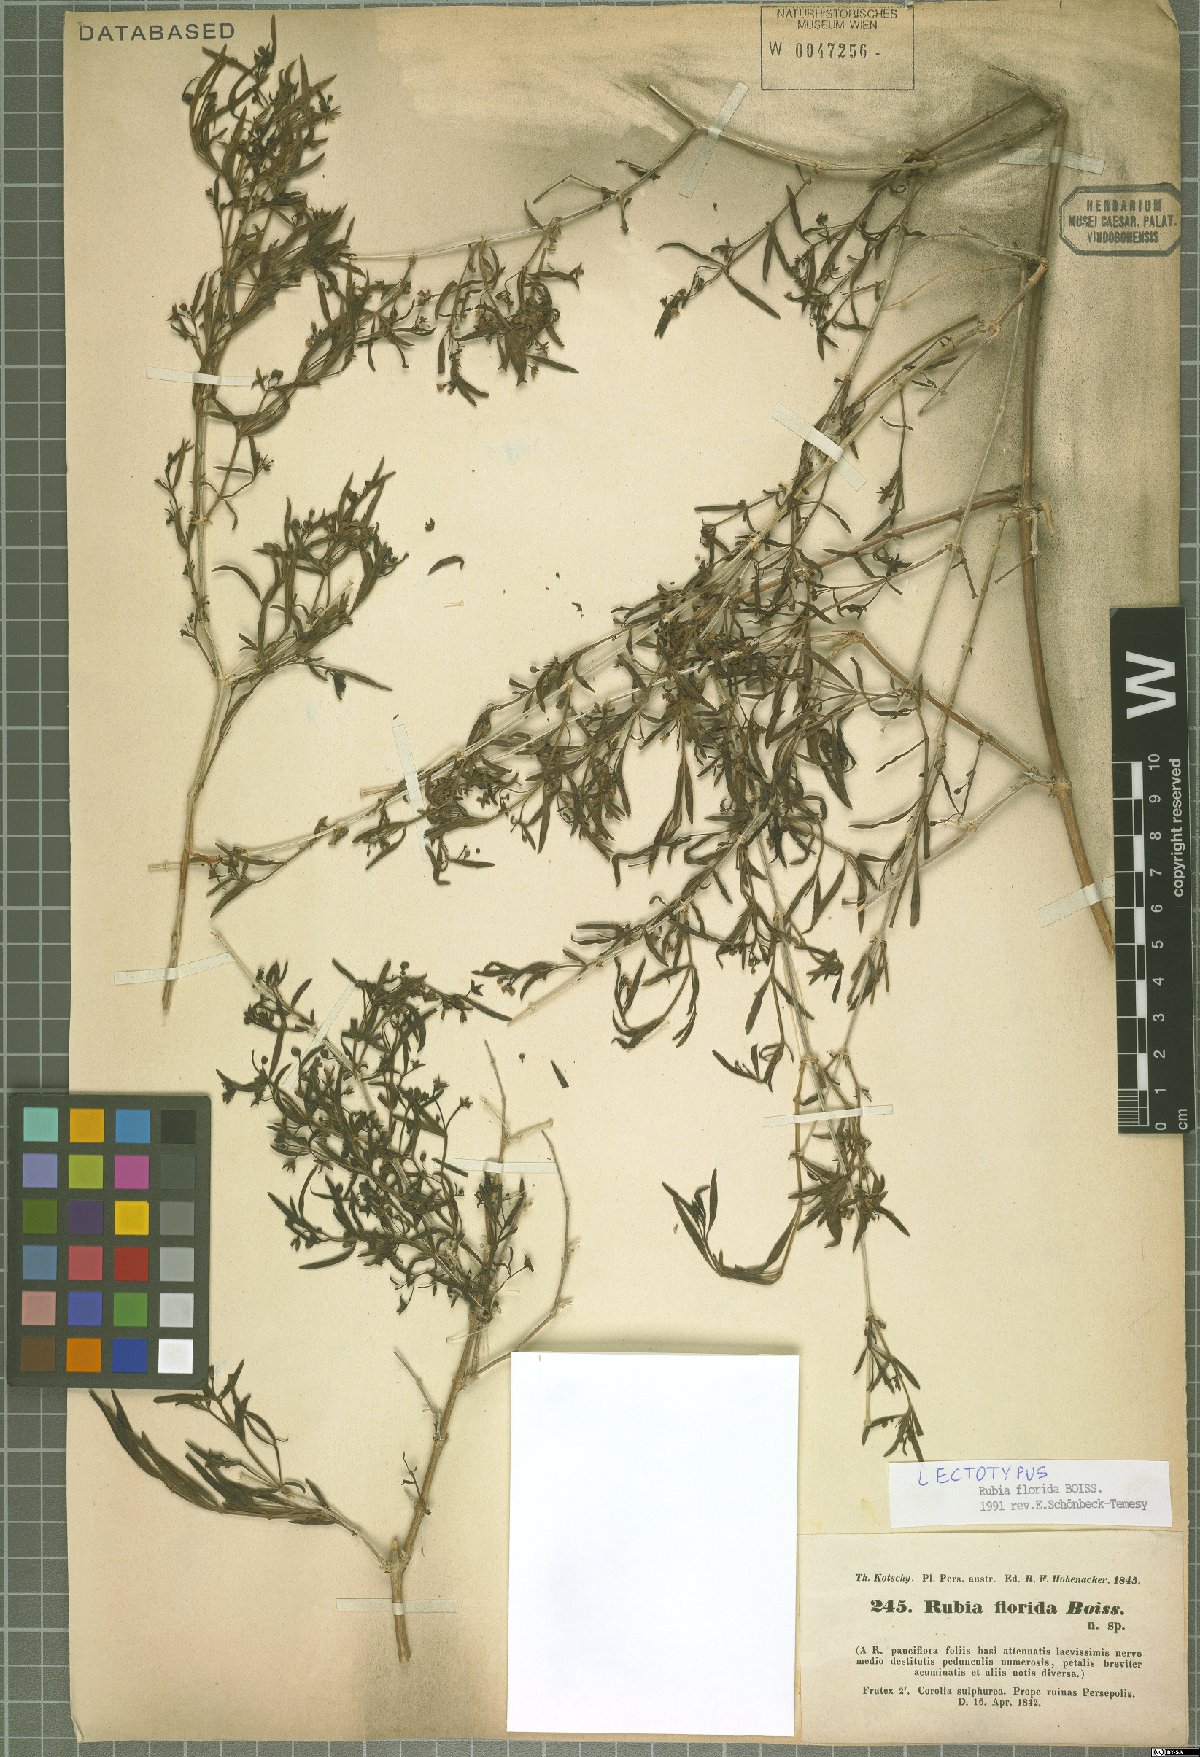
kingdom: Plantae
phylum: Tracheophyta
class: Magnoliopsida
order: Gentianales
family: Rubiaceae
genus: Rubia
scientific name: Rubia florida
